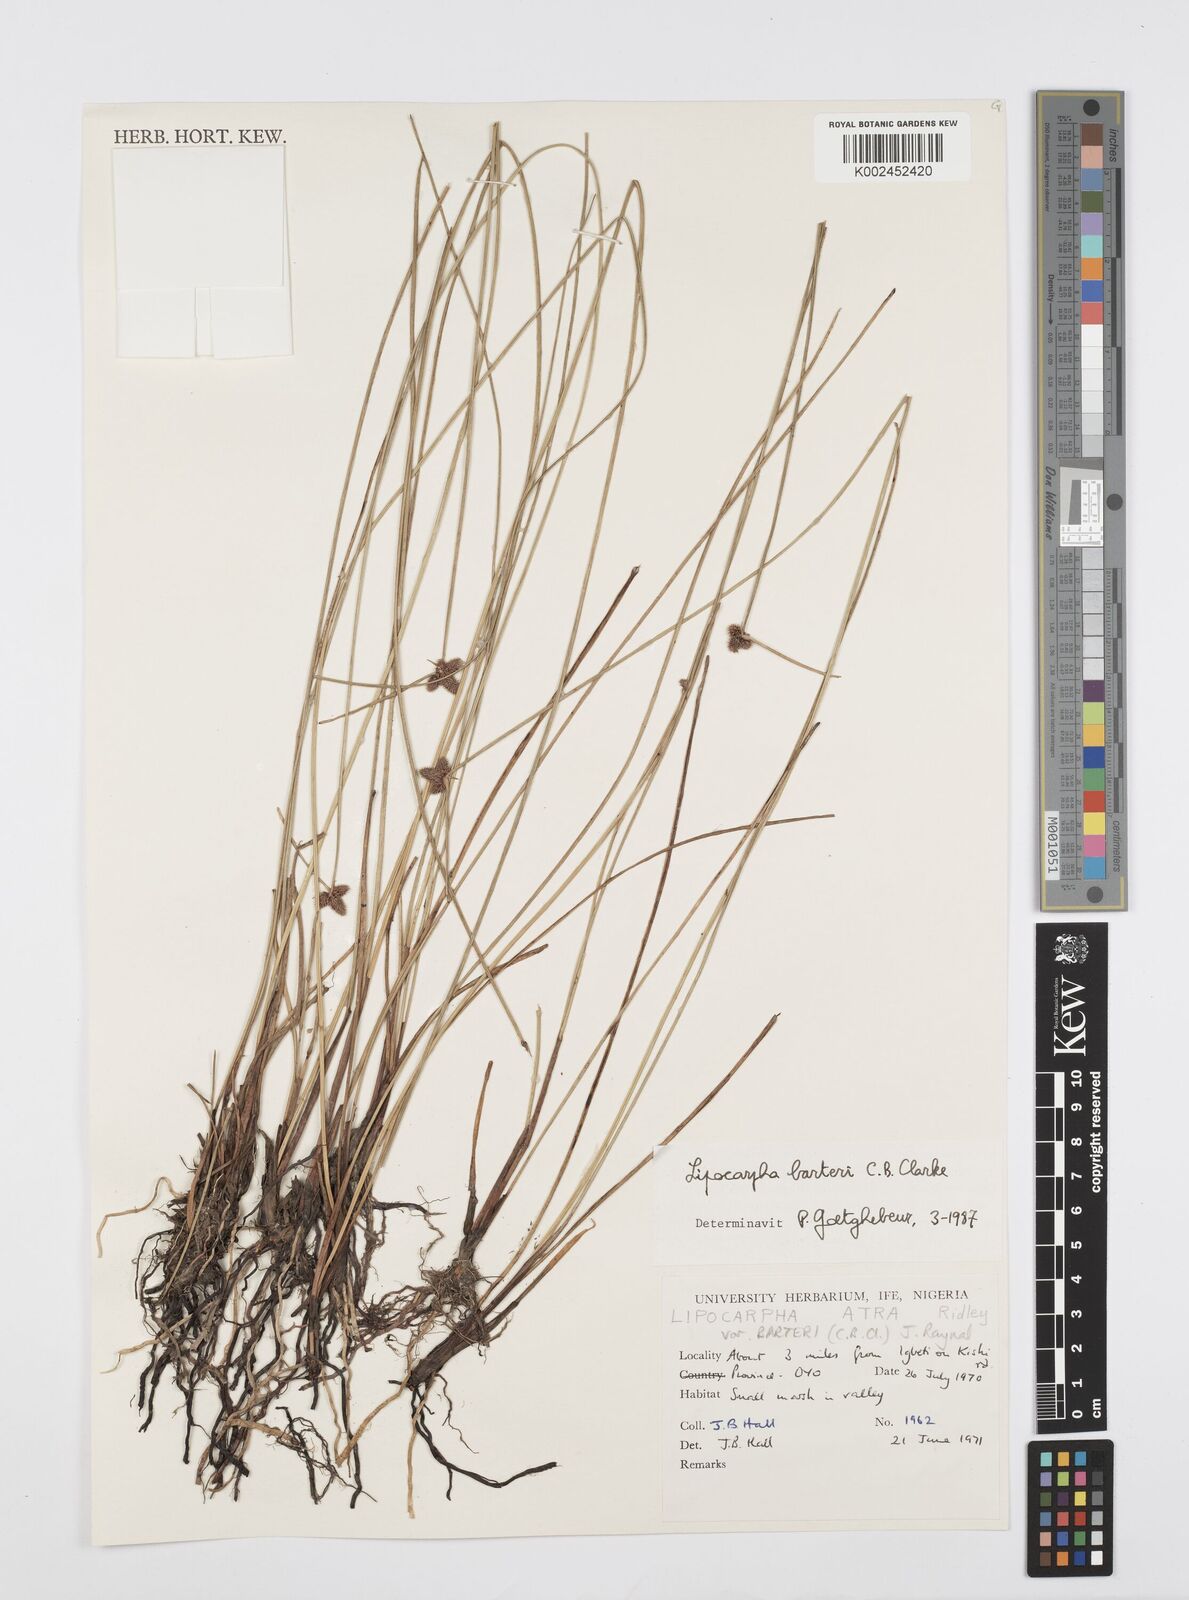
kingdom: Plantae
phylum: Tracheophyta
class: Liliopsida
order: Poales
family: Cyperaceae
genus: Cyperus
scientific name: Cyperus pustulatus
